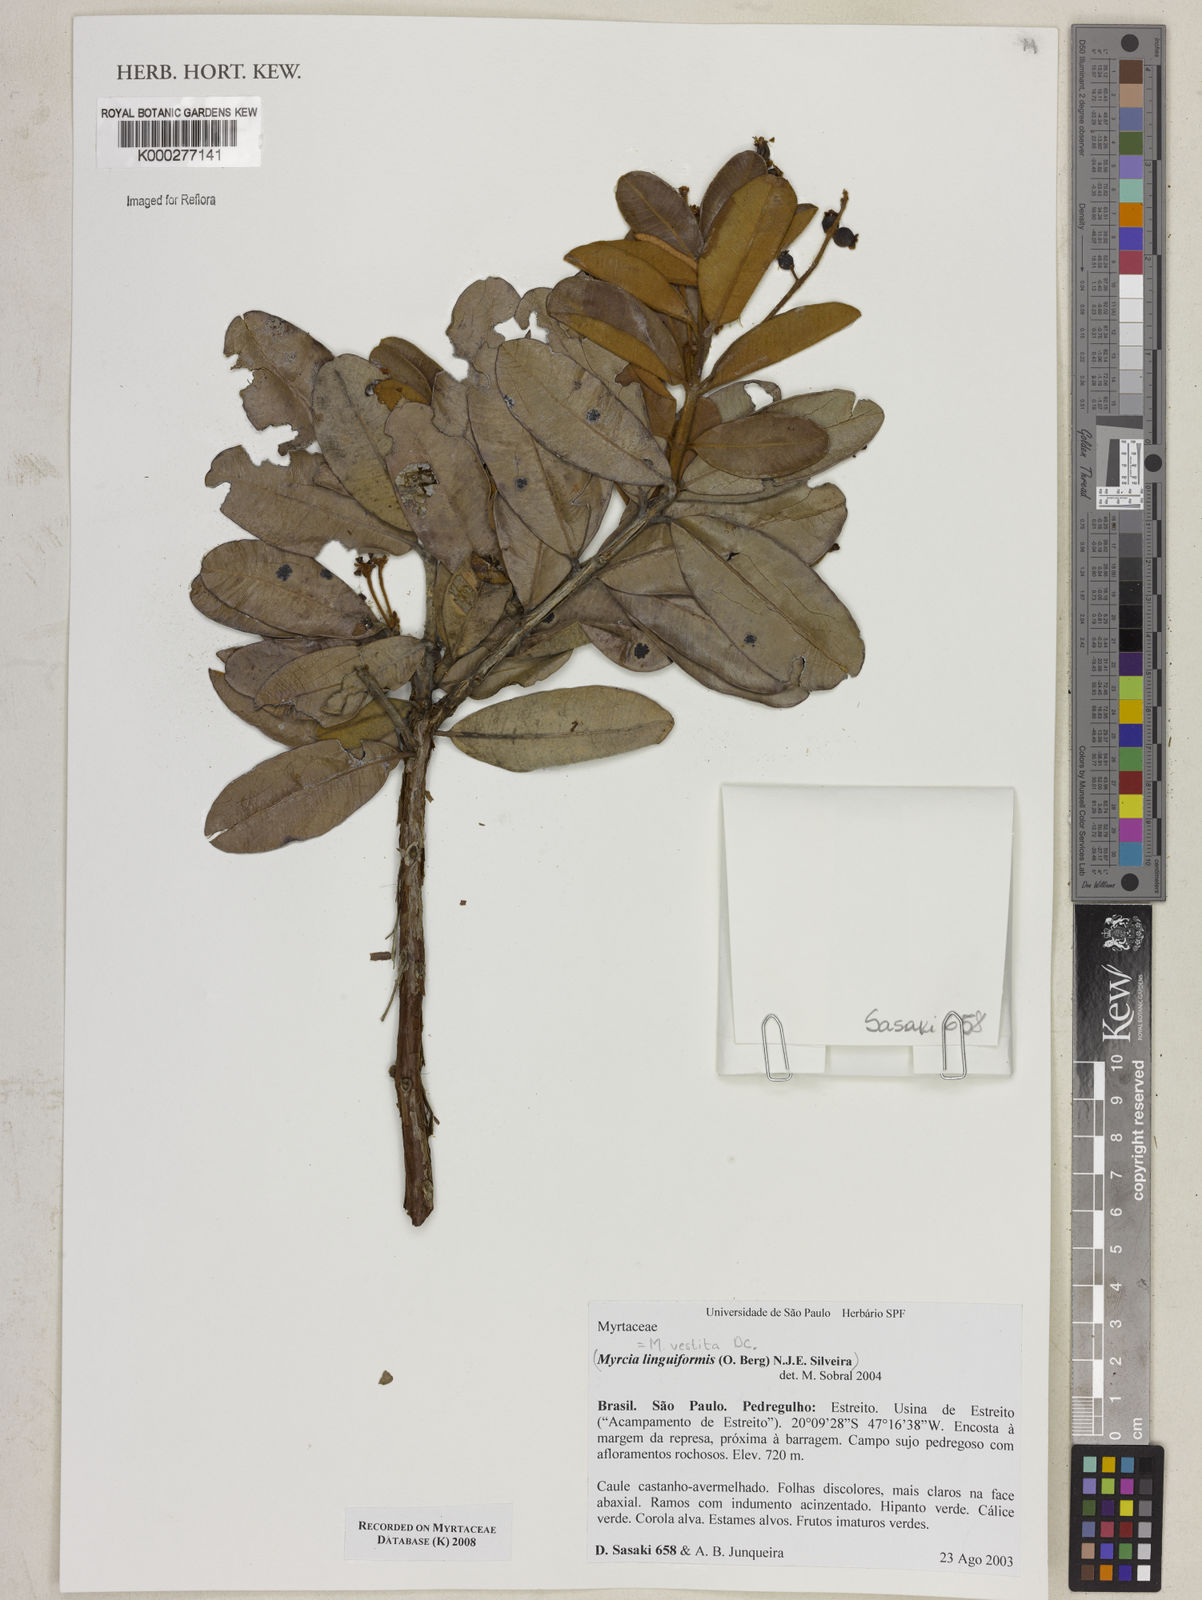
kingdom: Plantae
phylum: Tracheophyta
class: Magnoliopsida
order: Myrtales
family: Myrtaceae
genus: Myrcia
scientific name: Myrcia subverticillaris
